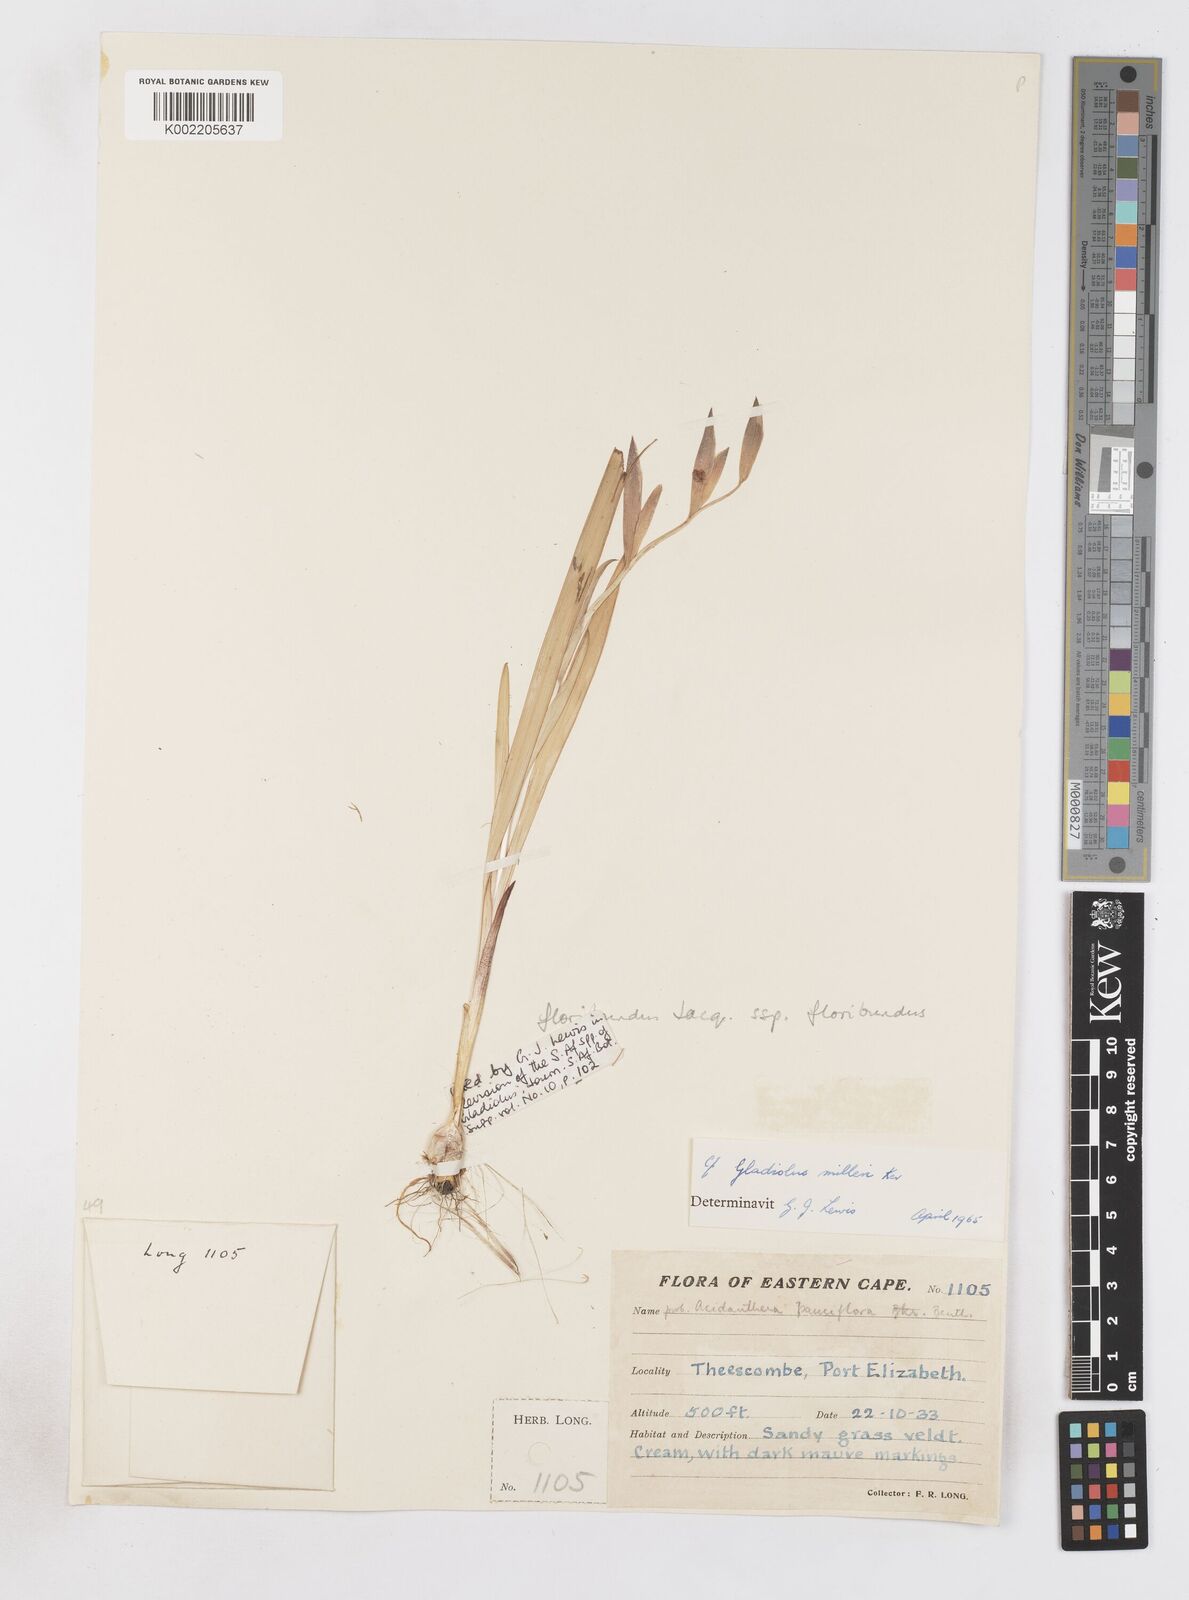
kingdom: Plantae
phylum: Tracheophyta
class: Liliopsida
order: Asparagales
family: Iridaceae
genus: Gladiolus
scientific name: Gladiolus grandiflorus
